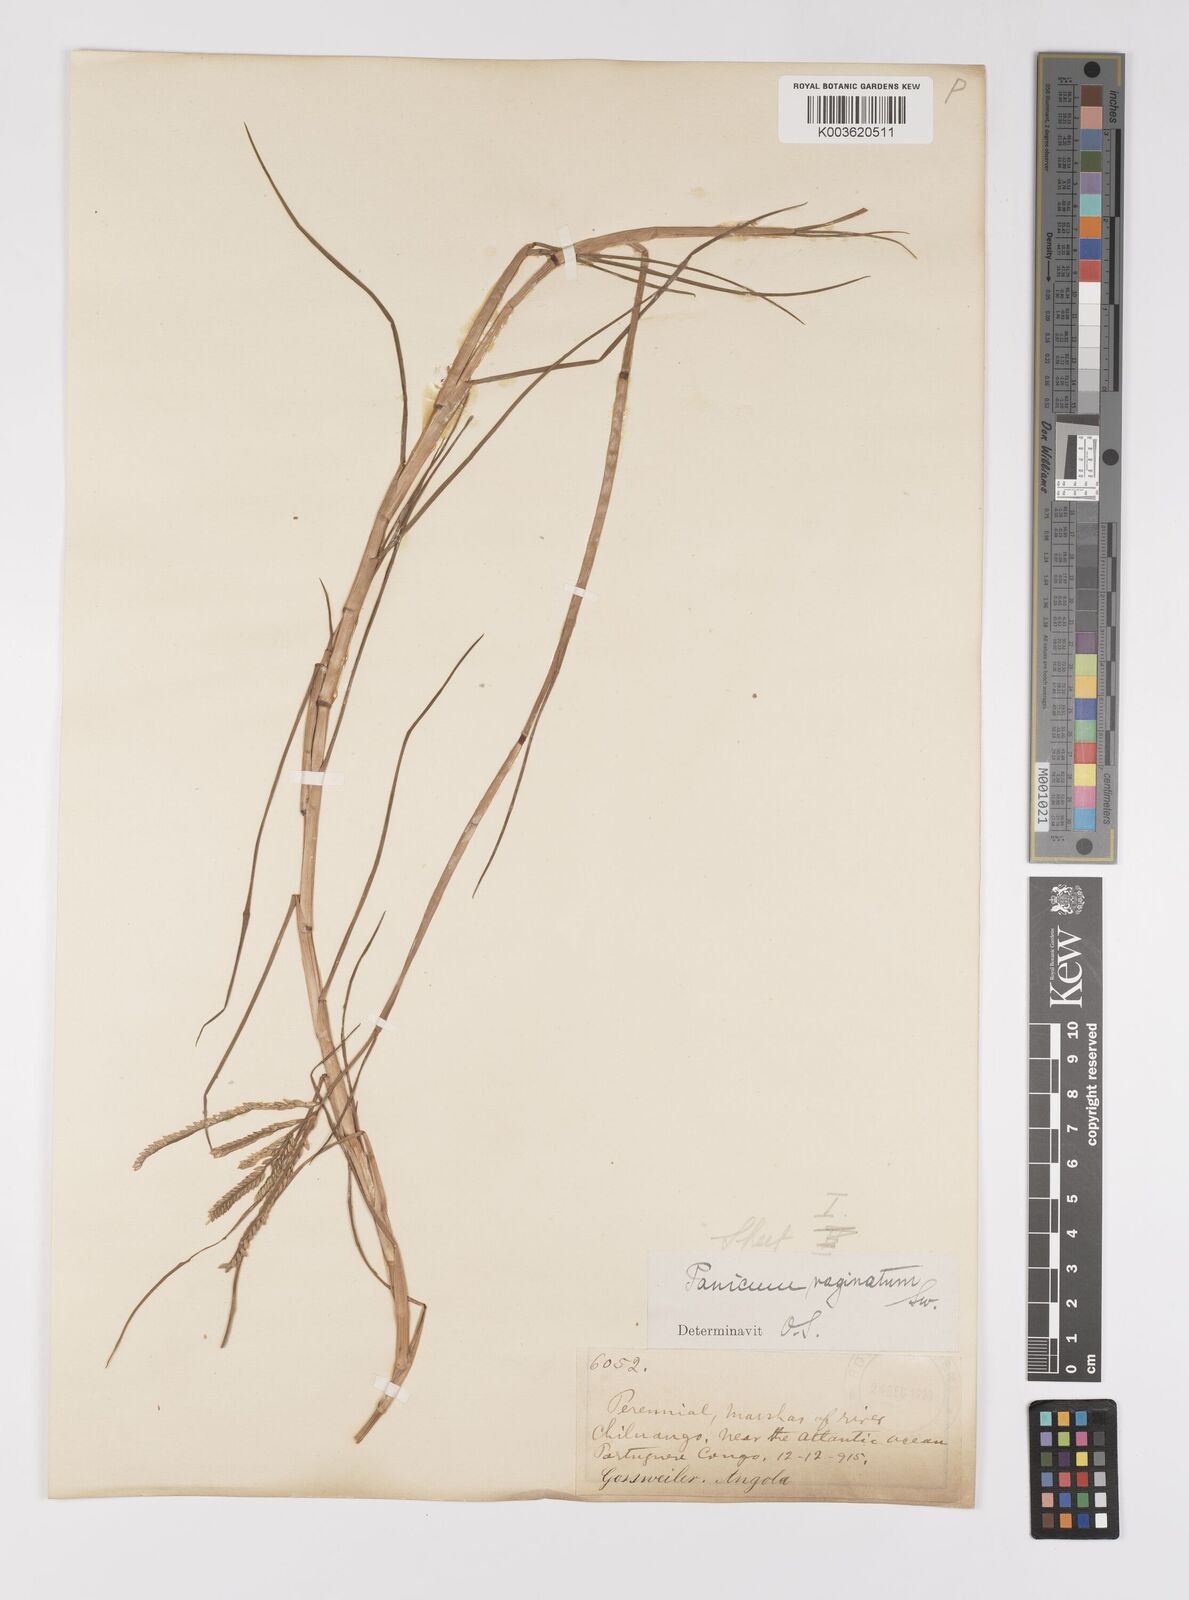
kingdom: Plantae
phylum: Tracheophyta
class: Liliopsida
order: Poales
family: Poaceae
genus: Paspalum
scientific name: Paspalum vaginatum
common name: Seashore paspalum
